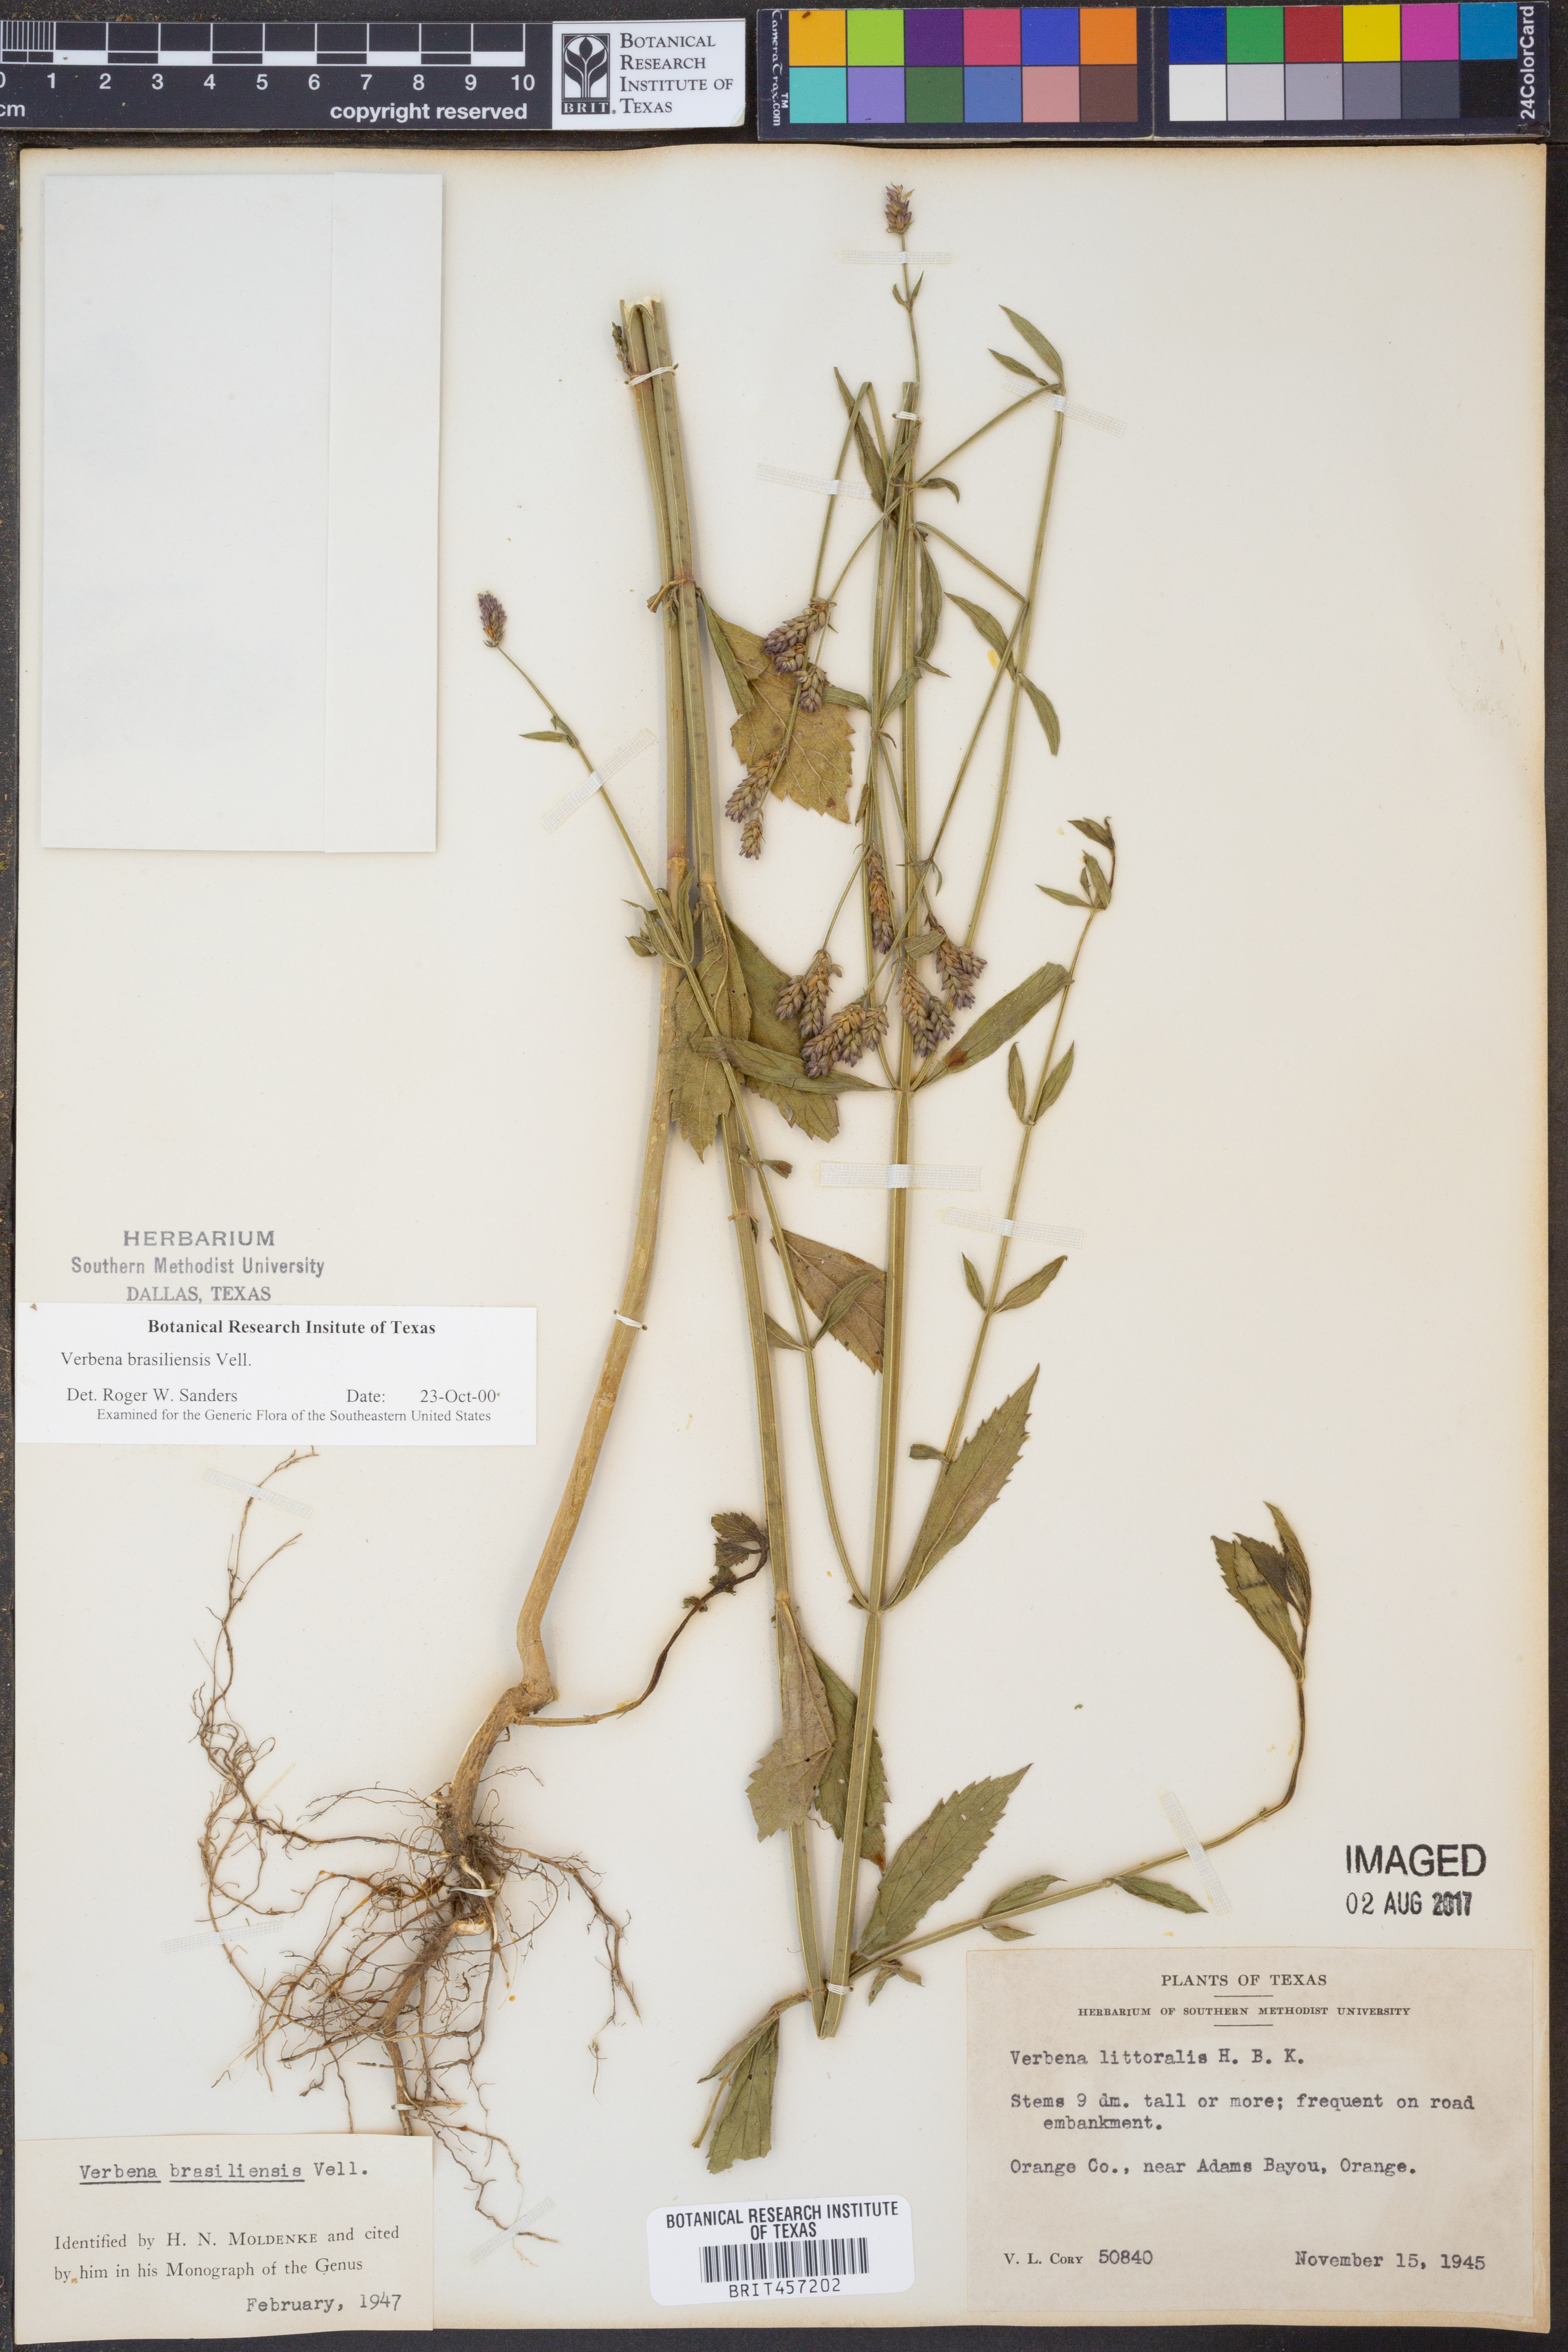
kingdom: Plantae
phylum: Tracheophyta
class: Magnoliopsida
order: Lamiales
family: Verbenaceae
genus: Verbena
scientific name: Verbena brasiliensis
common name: Brazilian vervain
